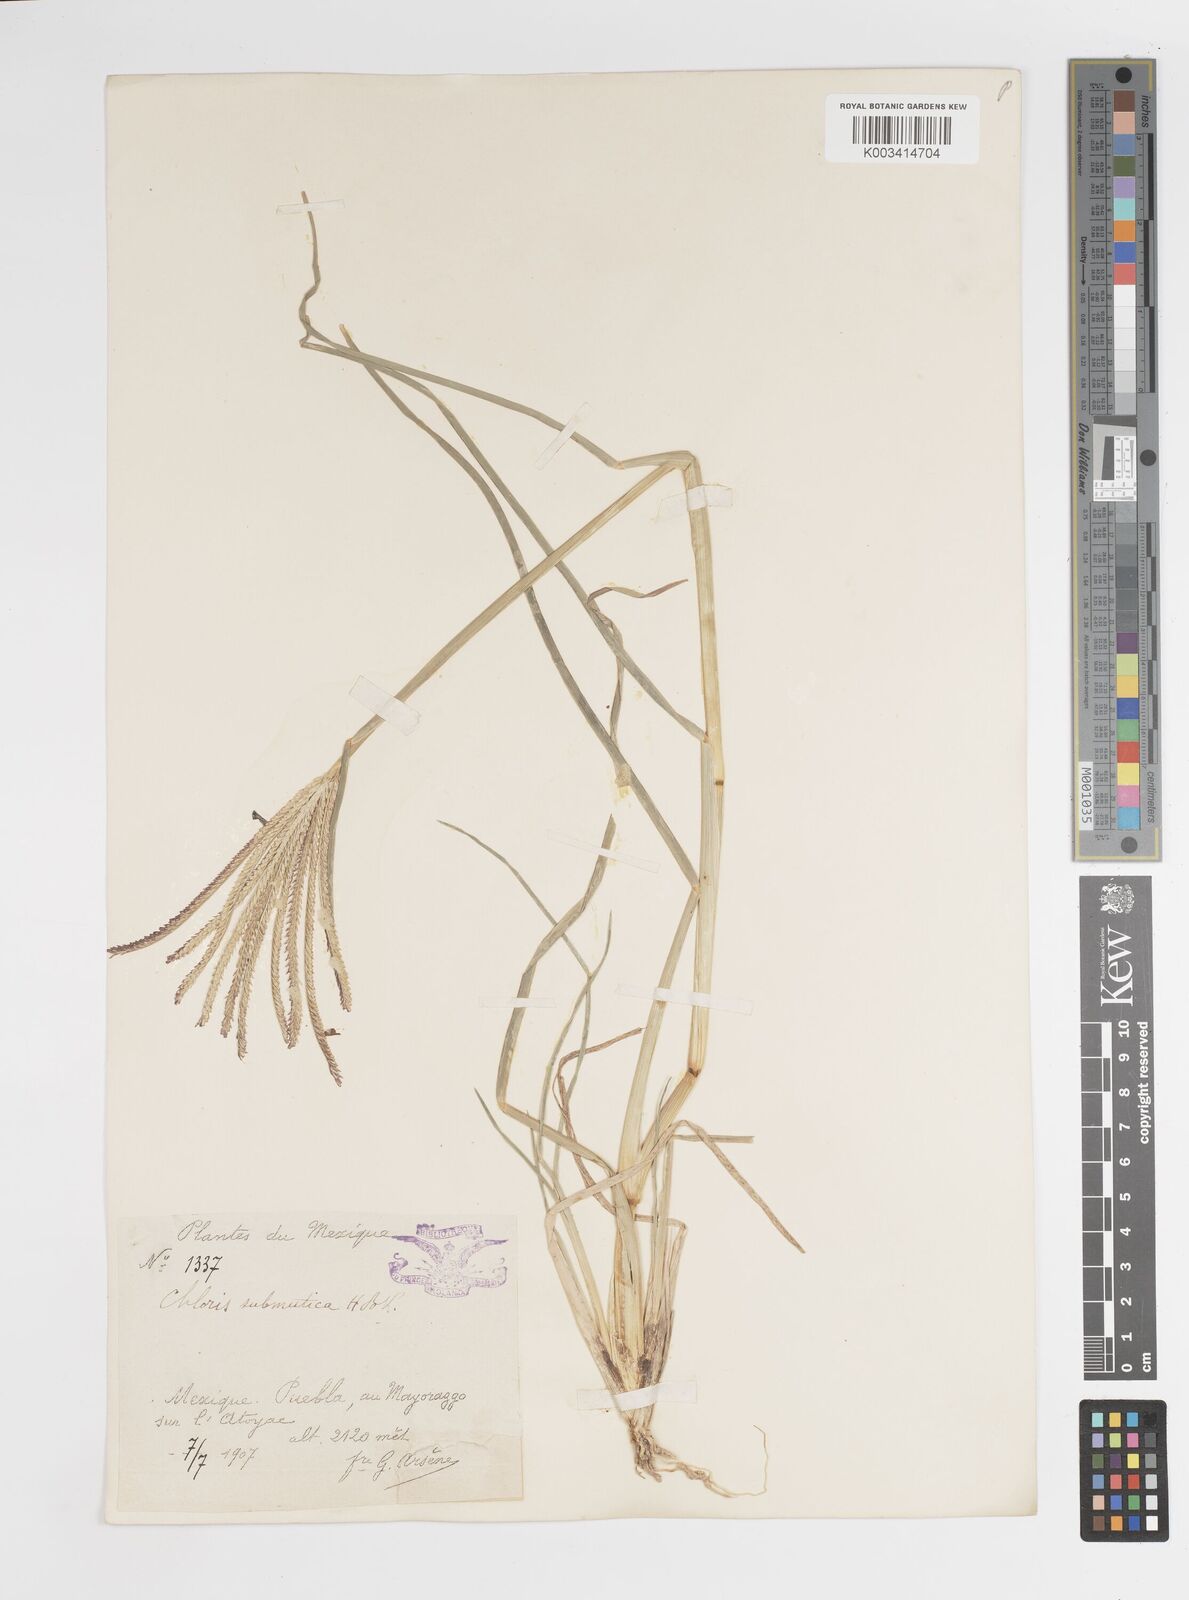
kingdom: Plantae
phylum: Tracheophyta
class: Liliopsida
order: Poales
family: Poaceae
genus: Chloris
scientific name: Chloris submutica
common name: Mexican windmill grass
